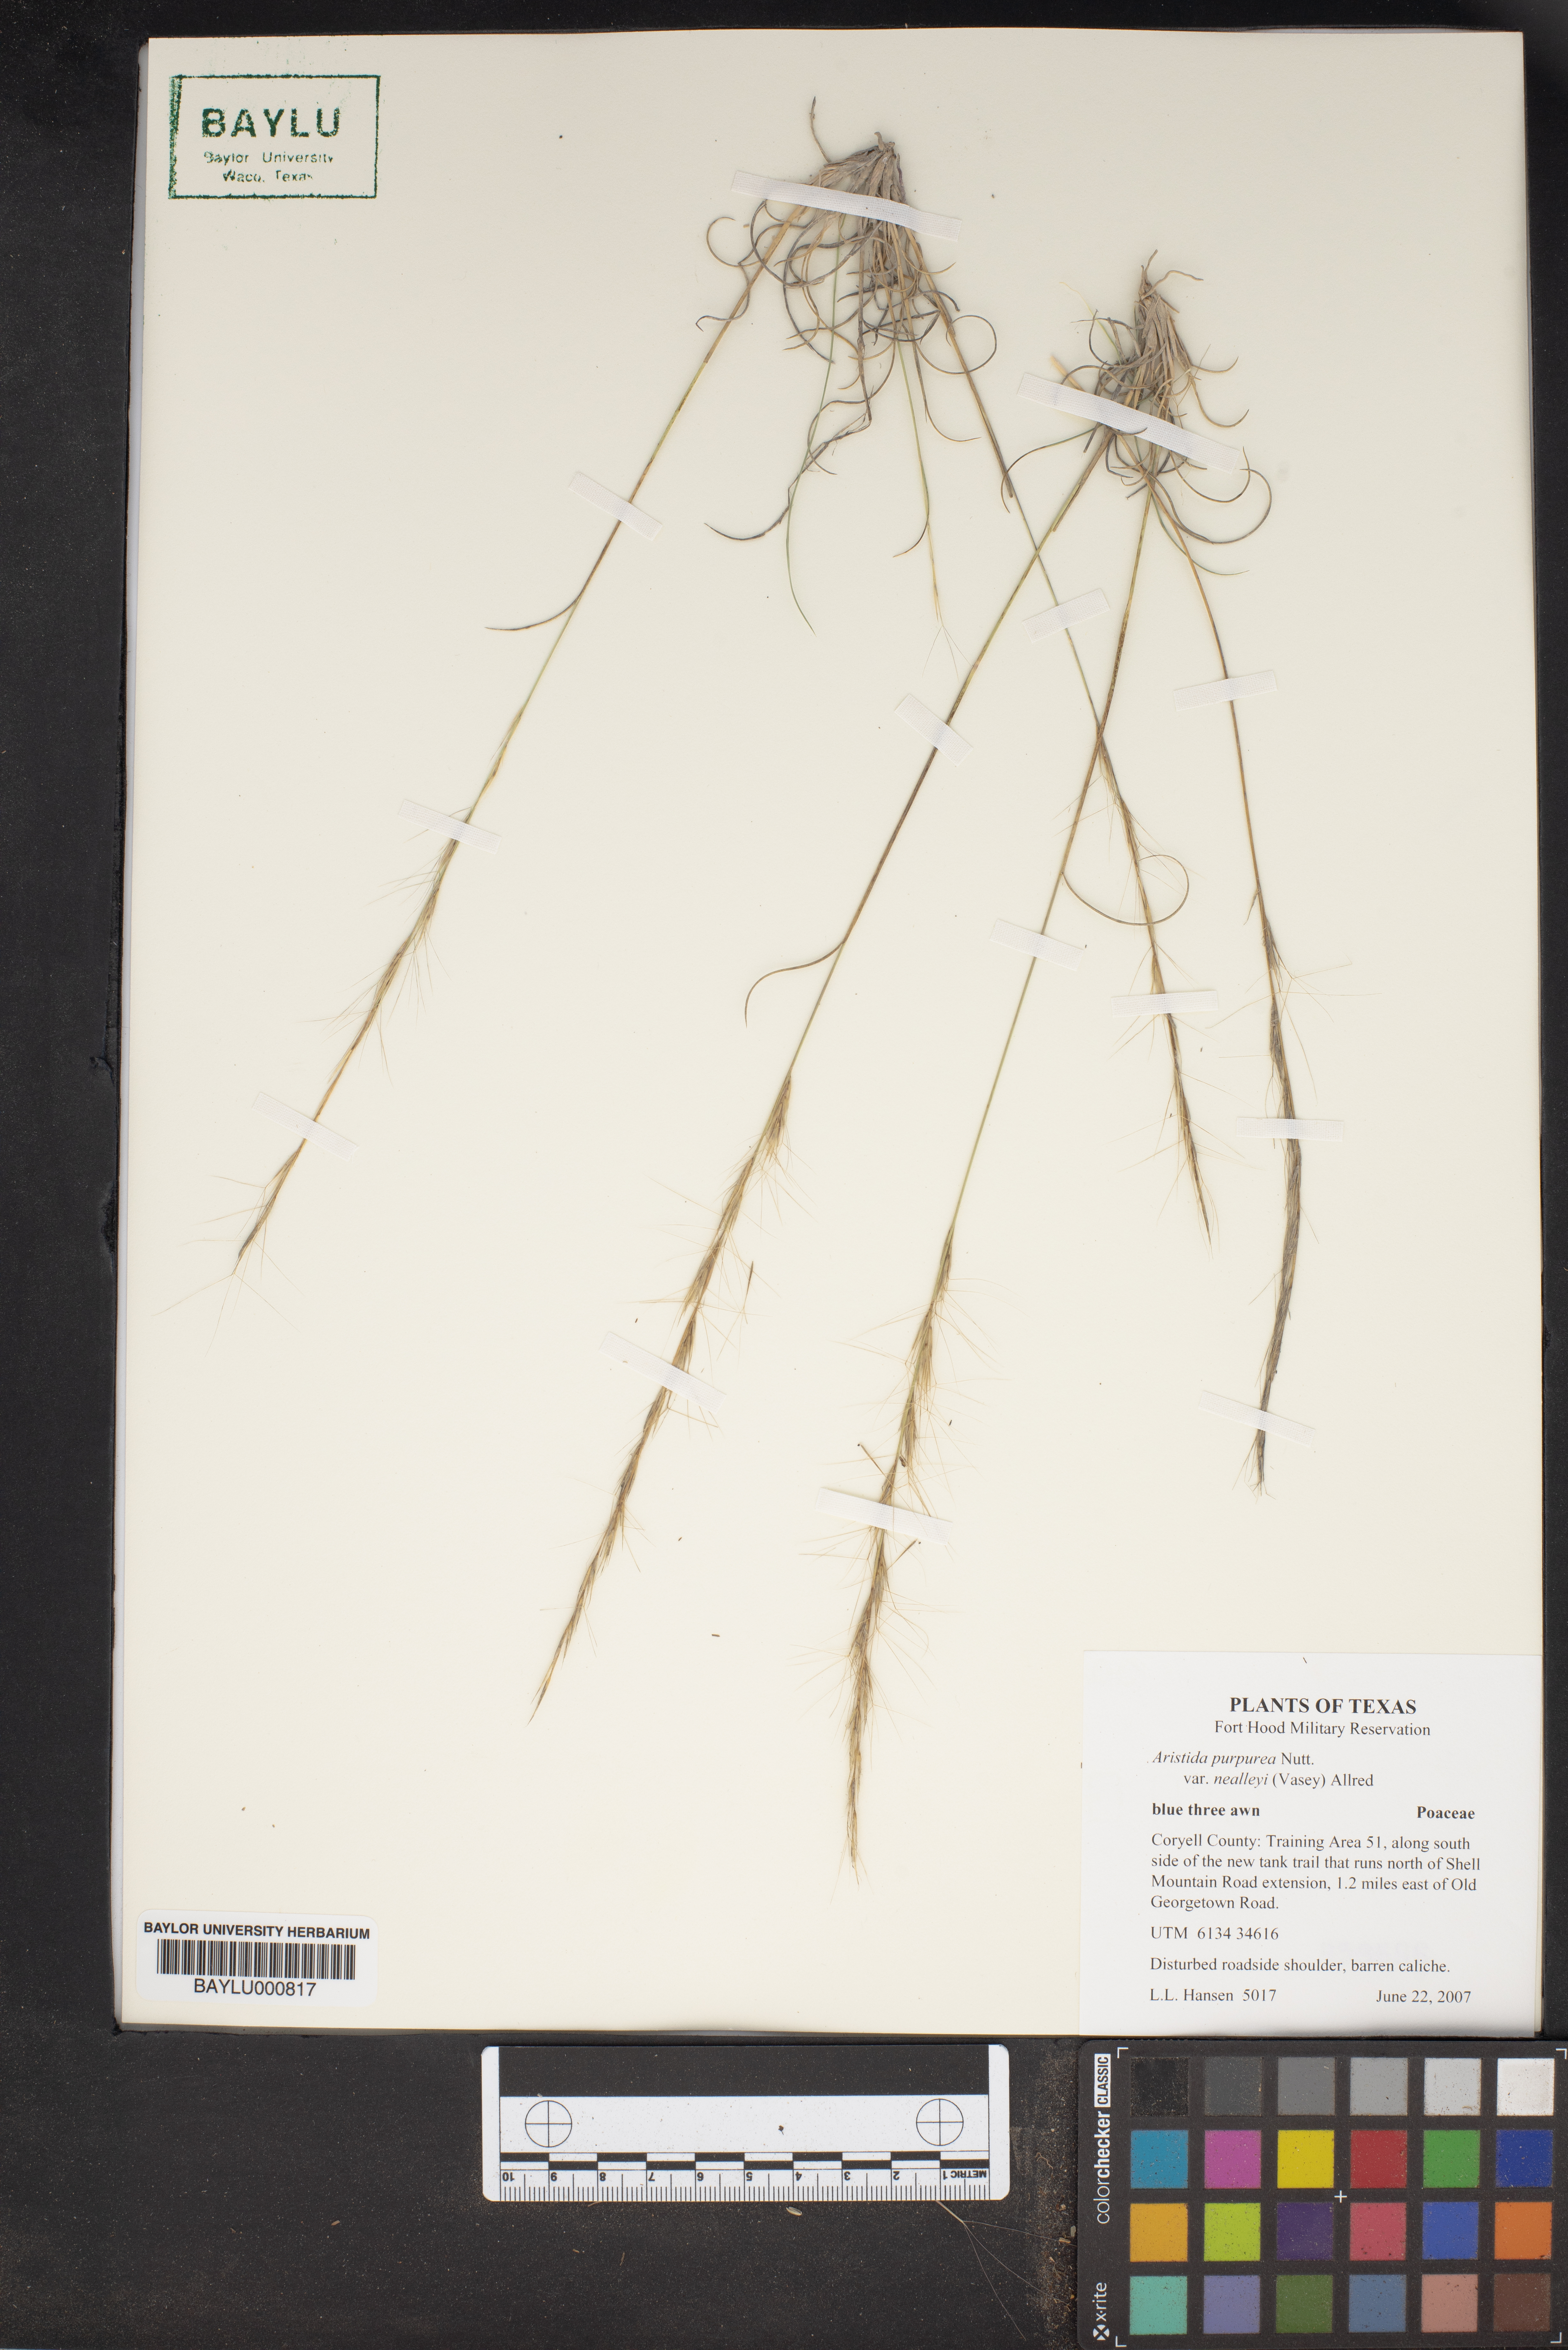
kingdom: Plantae
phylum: Tracheophyta
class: Liliopsida
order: Poales
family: Poaceae
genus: Aristida
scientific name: Aristida glauca
